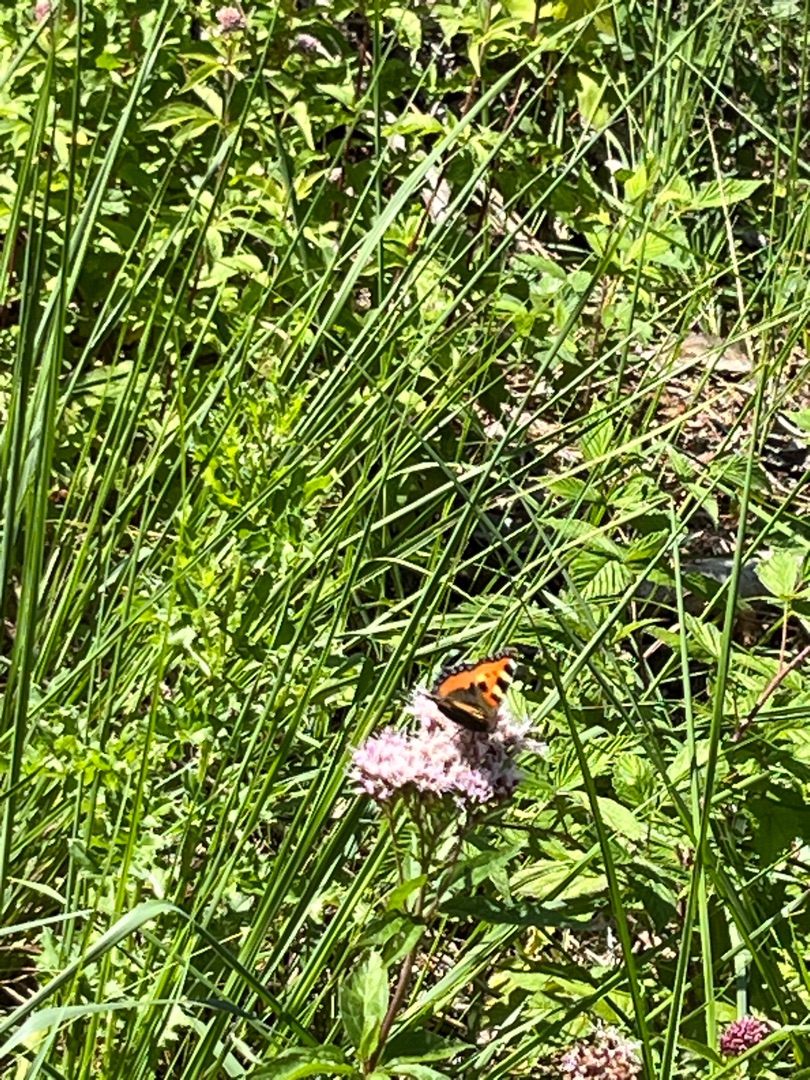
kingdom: Animalia
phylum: Arthropoda
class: Insecta
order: Lepidoptera
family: Nymphalidae
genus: Aglais
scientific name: Aglais urticae
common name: Nældens takvinge
